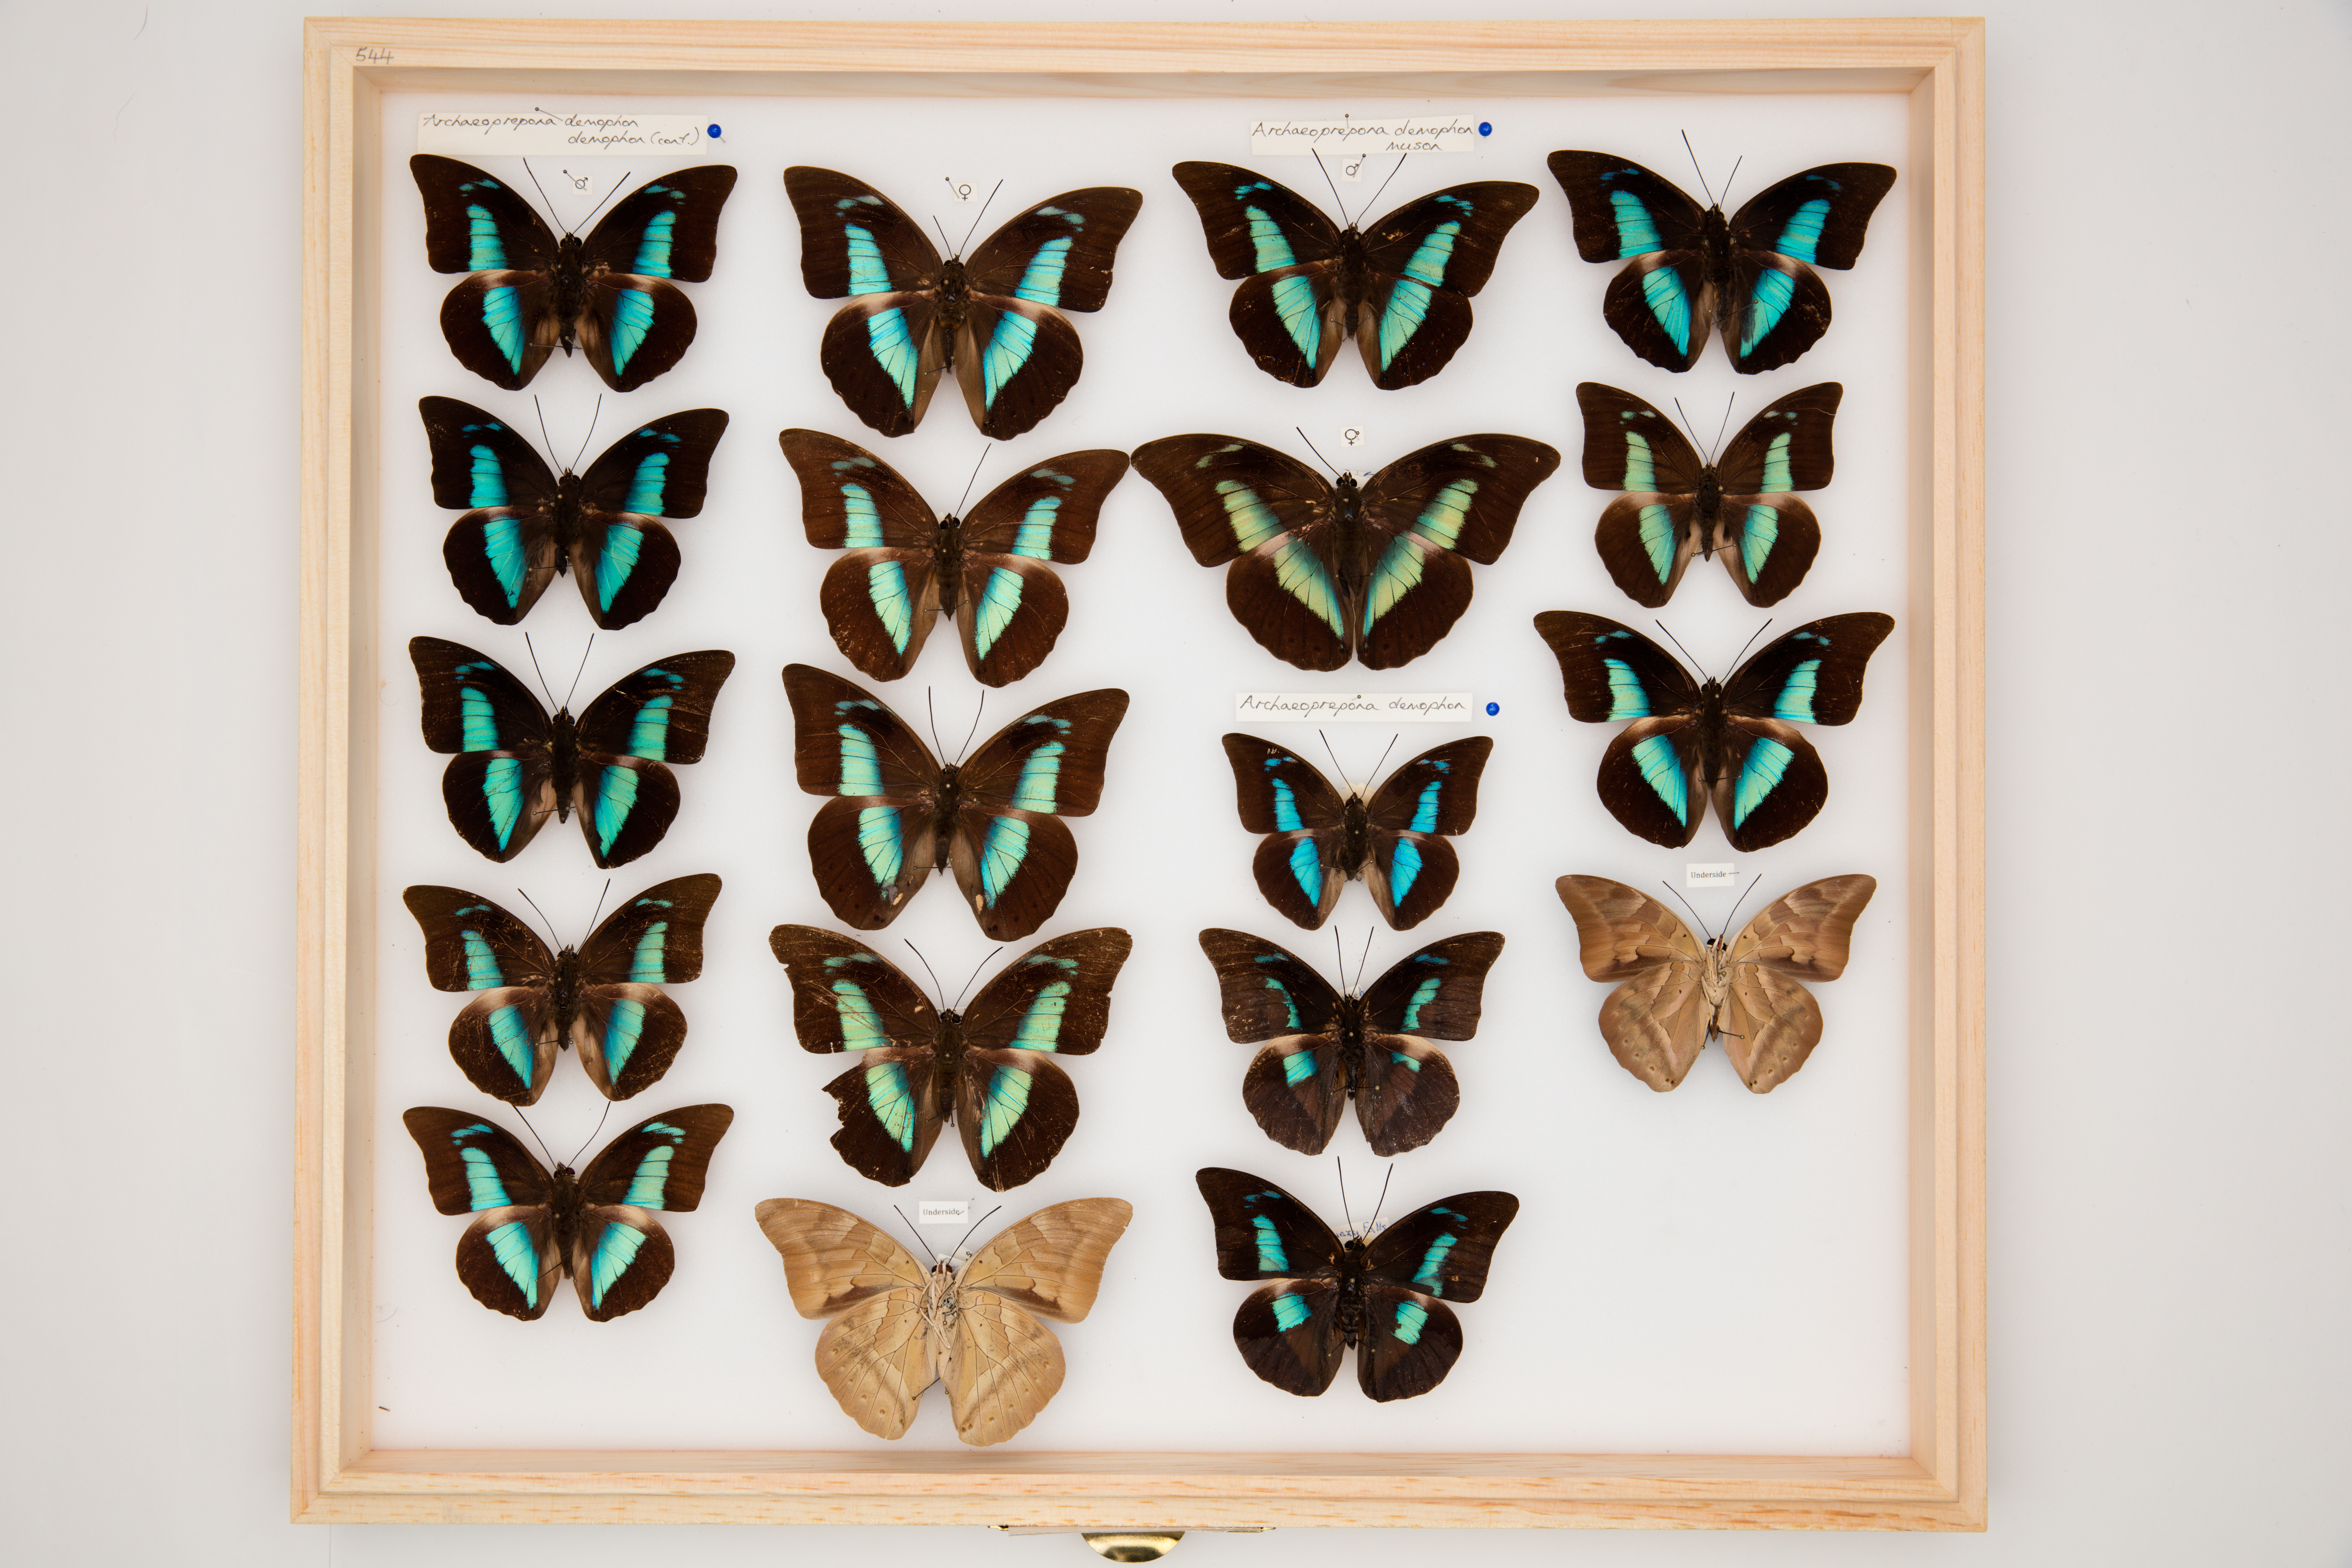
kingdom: Animalia
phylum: Arthropoda
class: Insecta
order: Lepidoptera
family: Nymphalidae
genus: Prepona
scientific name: Prepona demophon
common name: One-spotted prepona
